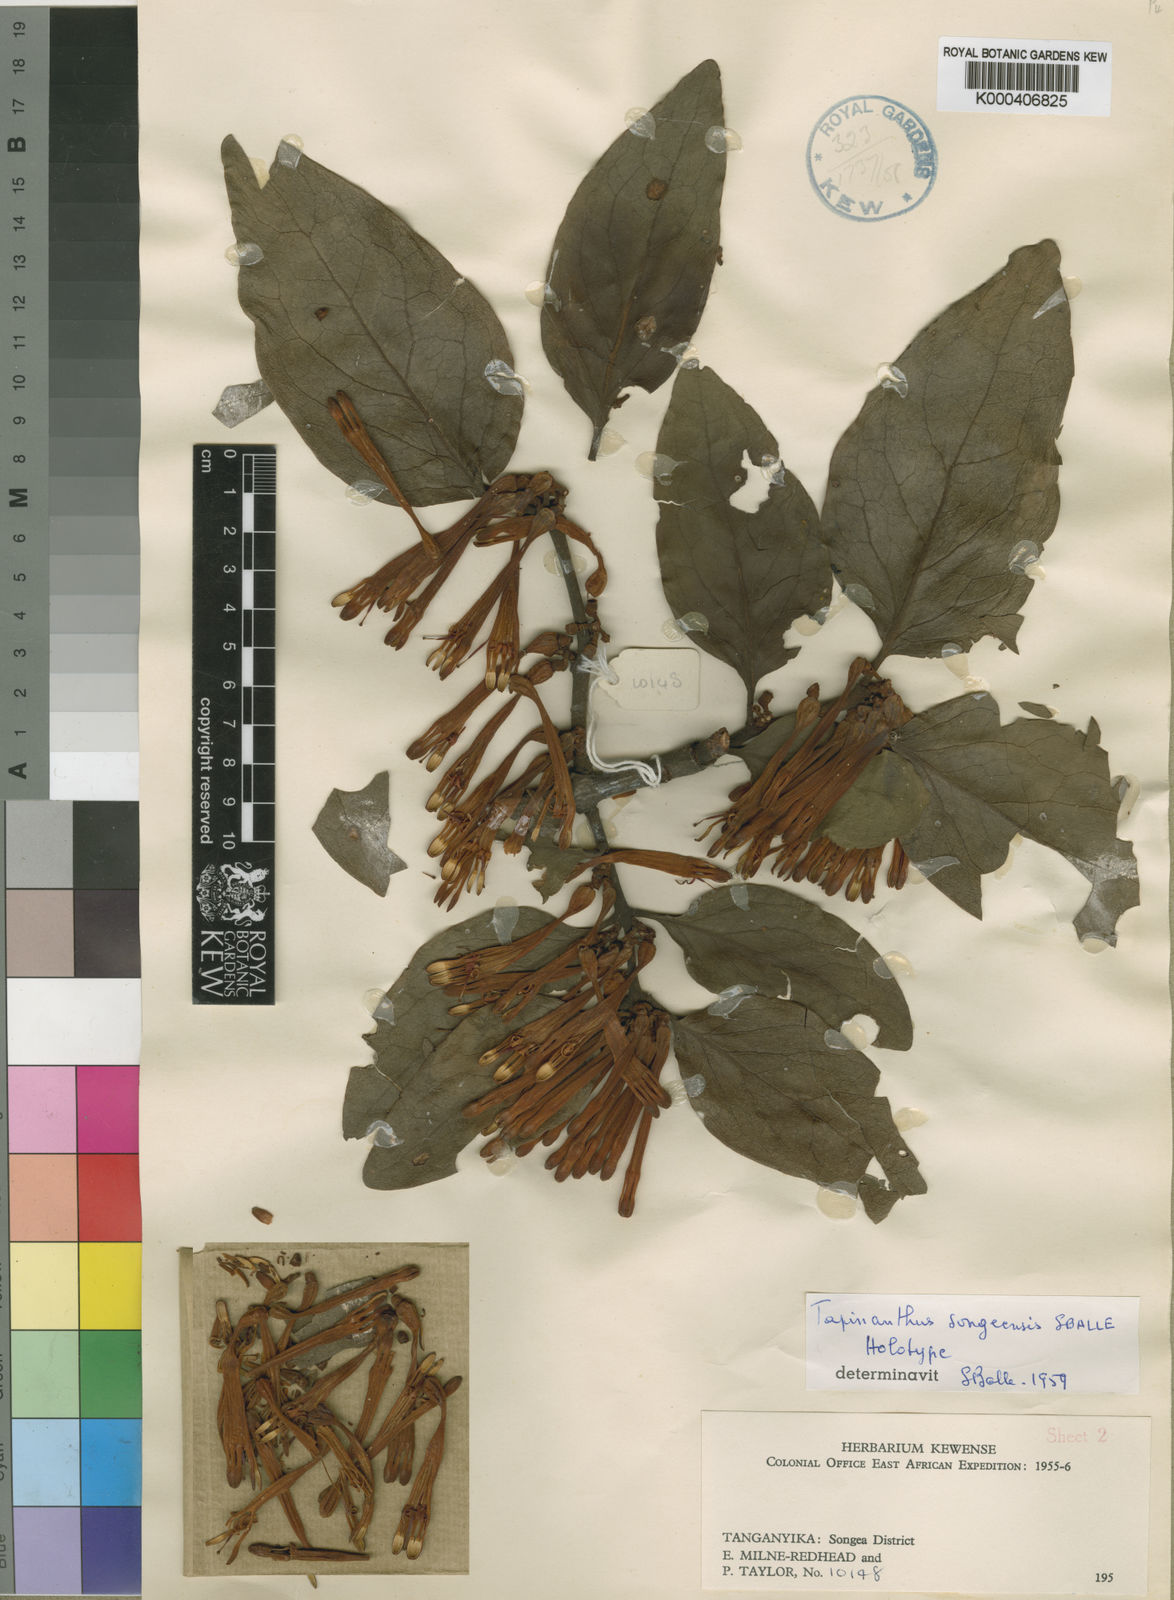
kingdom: Plantae
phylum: Tracheophyta
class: Magnoliopsida
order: Santalales
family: Loranthaceae
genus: Agelanthus
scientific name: Agelanthus songeensis
